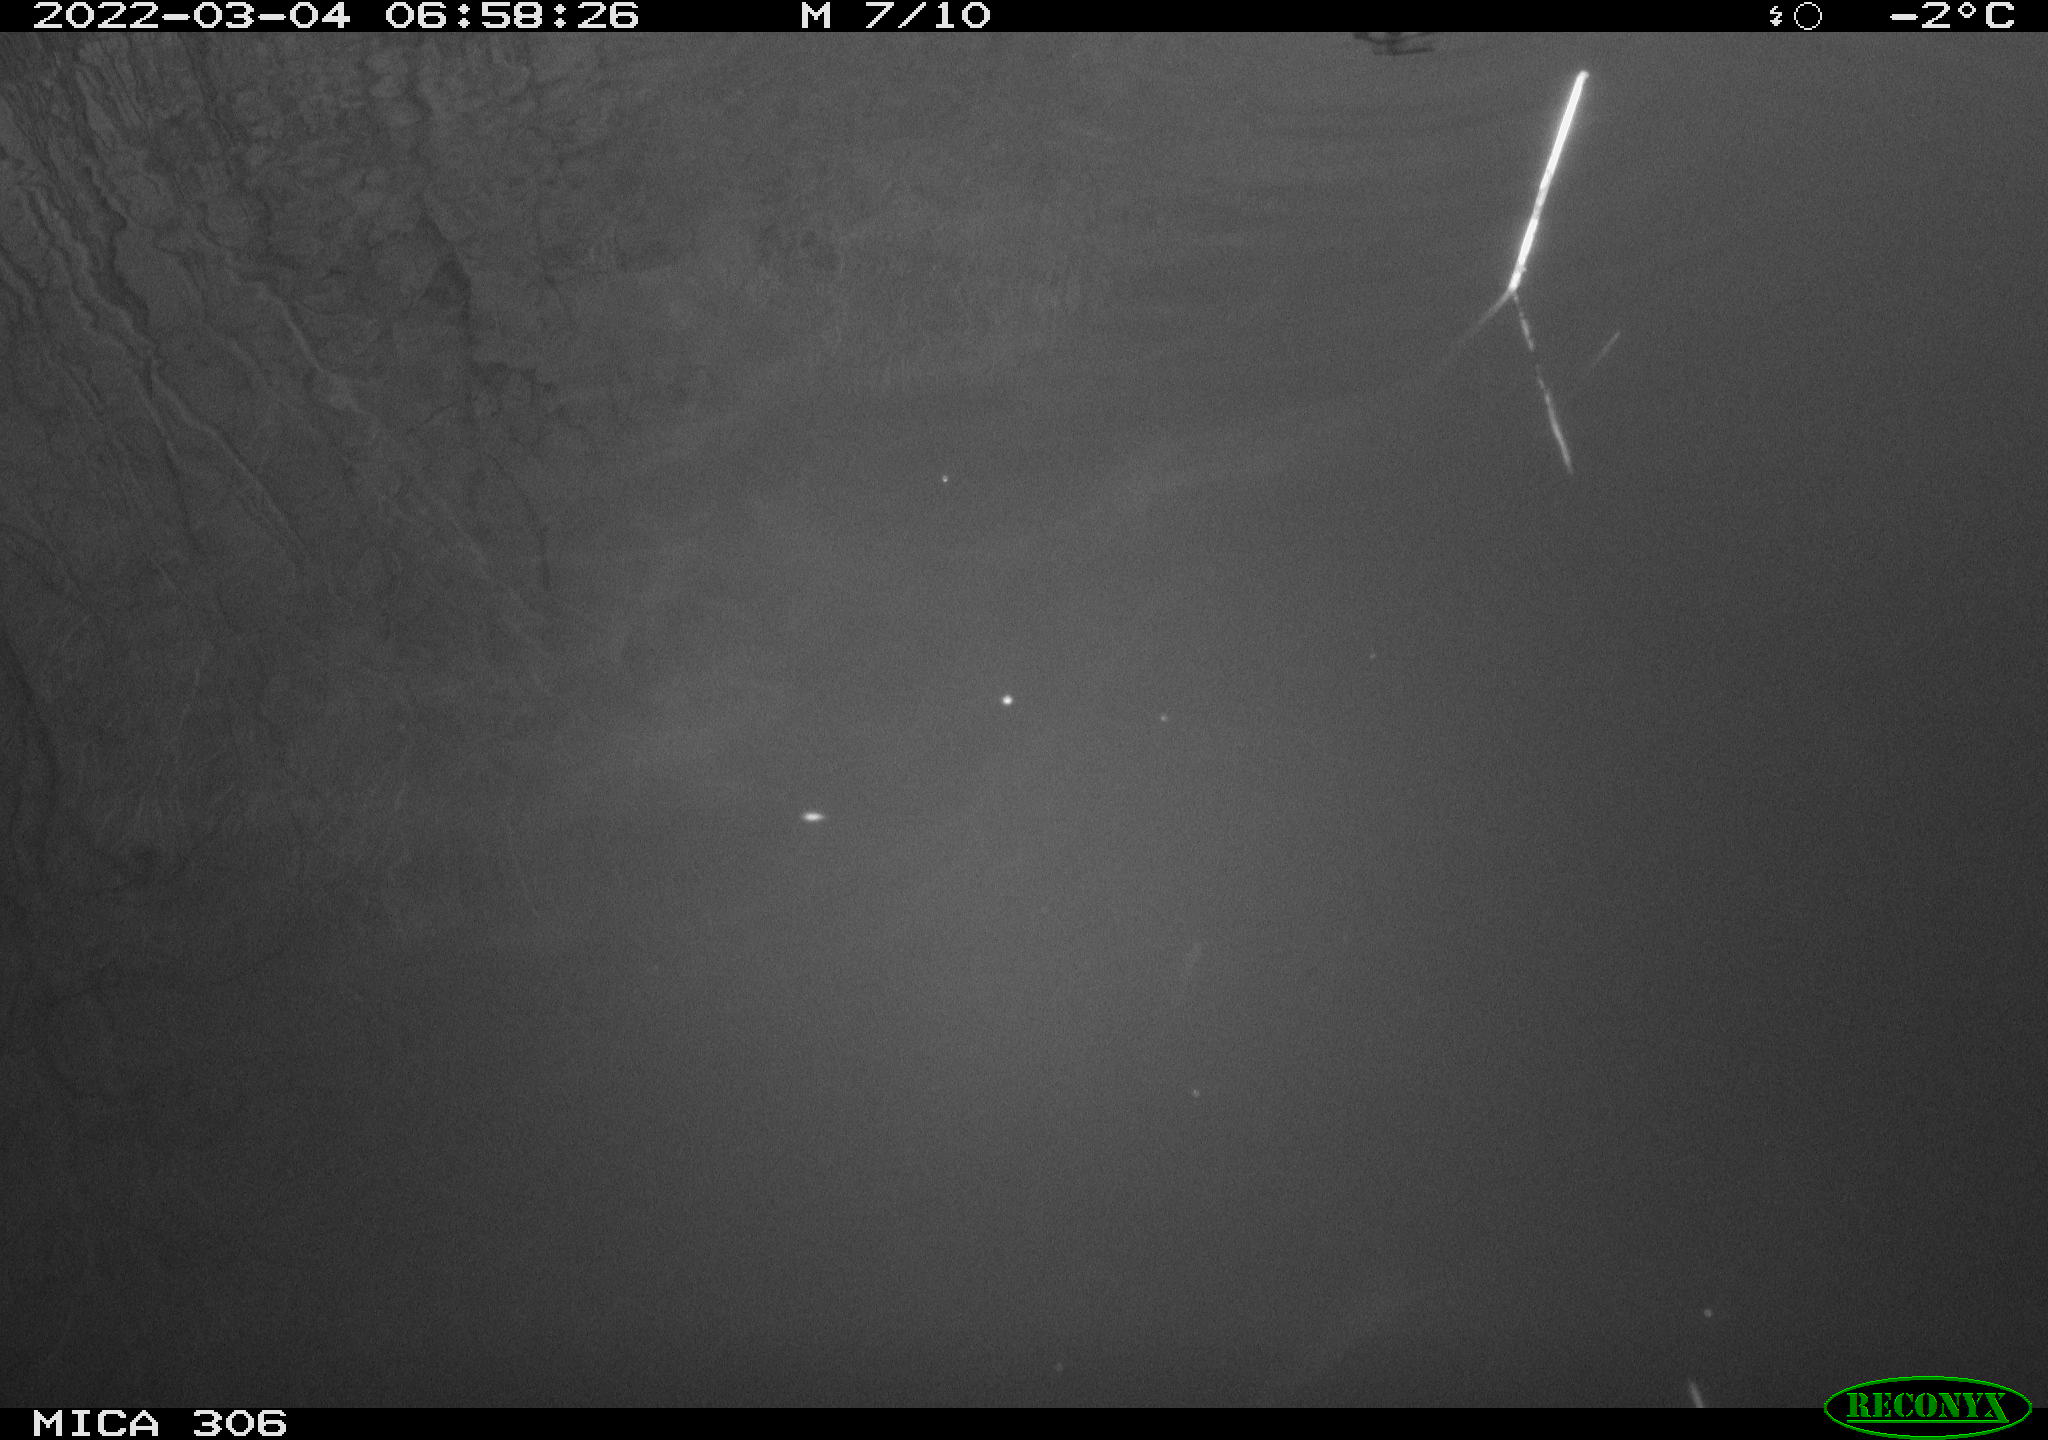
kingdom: Animalia
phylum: Chordata
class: Aves
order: Gruiformes
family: Rallidae
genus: Gallinula
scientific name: Gallinula chloropus
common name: Common moorhen
